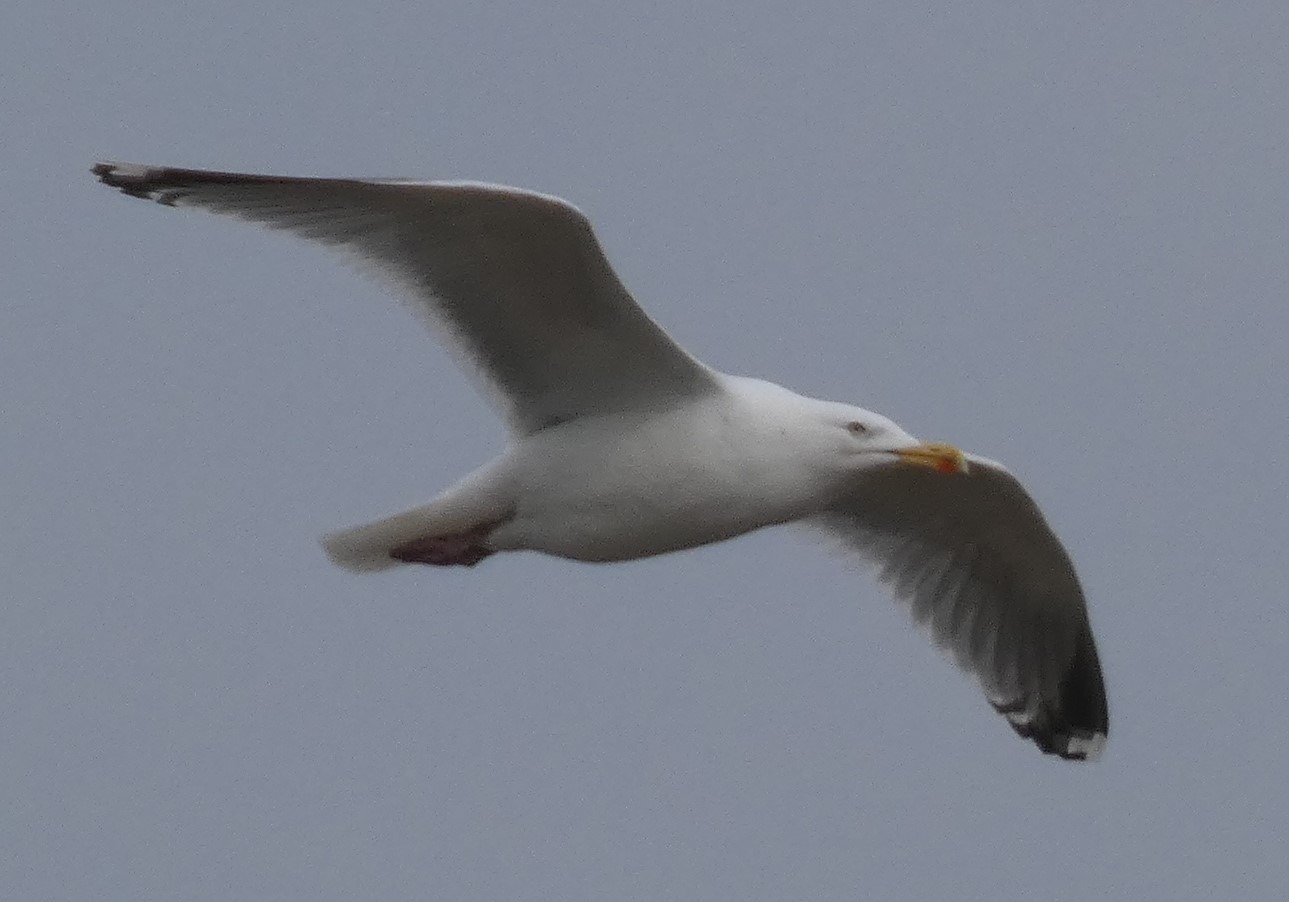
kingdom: Animalia
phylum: Chordata
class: Aves
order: Charadriiformes
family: Laridae
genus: Larus
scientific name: Larus argentatus
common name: Sølvmåge
